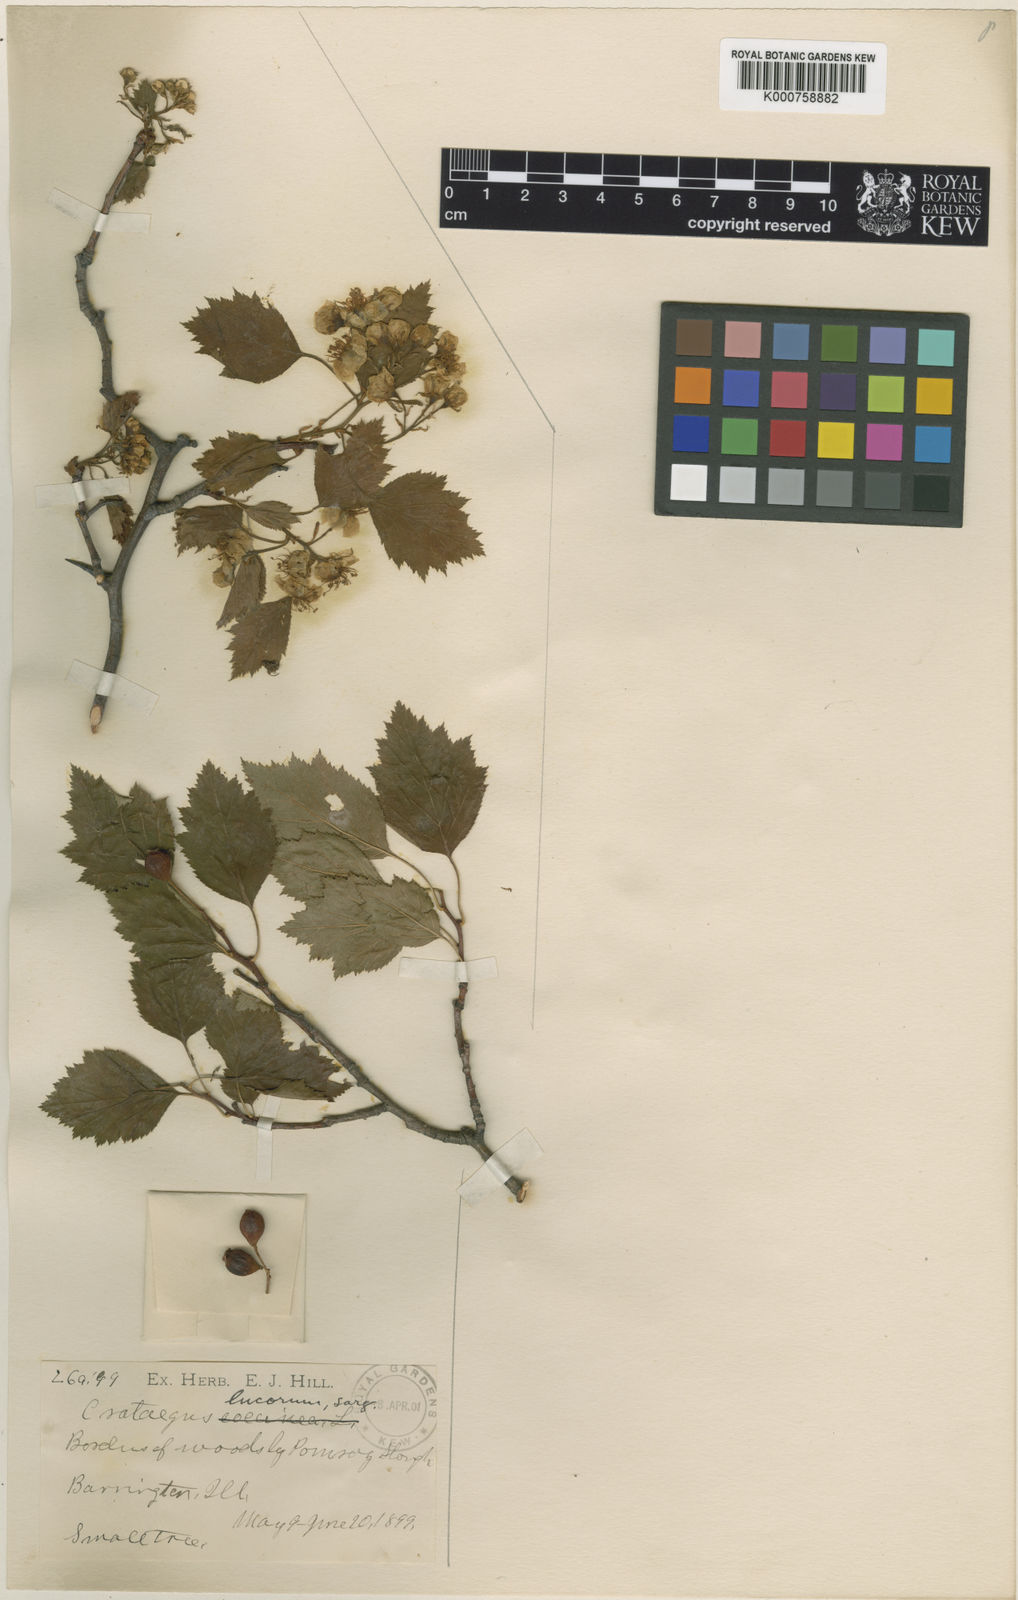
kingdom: Plantae
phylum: Tracheophyta
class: Magnoliopsida
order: Rosales
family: Rosaceae
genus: Crataegus
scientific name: Crataegus lucorum
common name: Grove hawthorn
